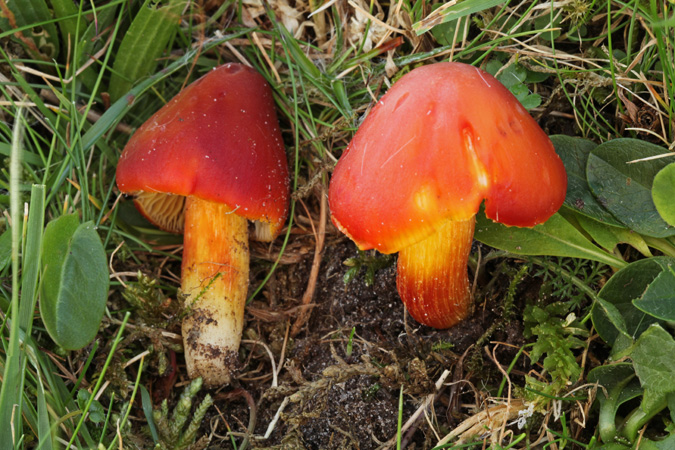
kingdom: Fungi
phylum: Basidiomycota
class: Agaricomycetes
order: Agaricales
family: Hygrophoraceae
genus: Hygrocybe
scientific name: Hygrocybe punicea
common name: skarlagen-vokshat
